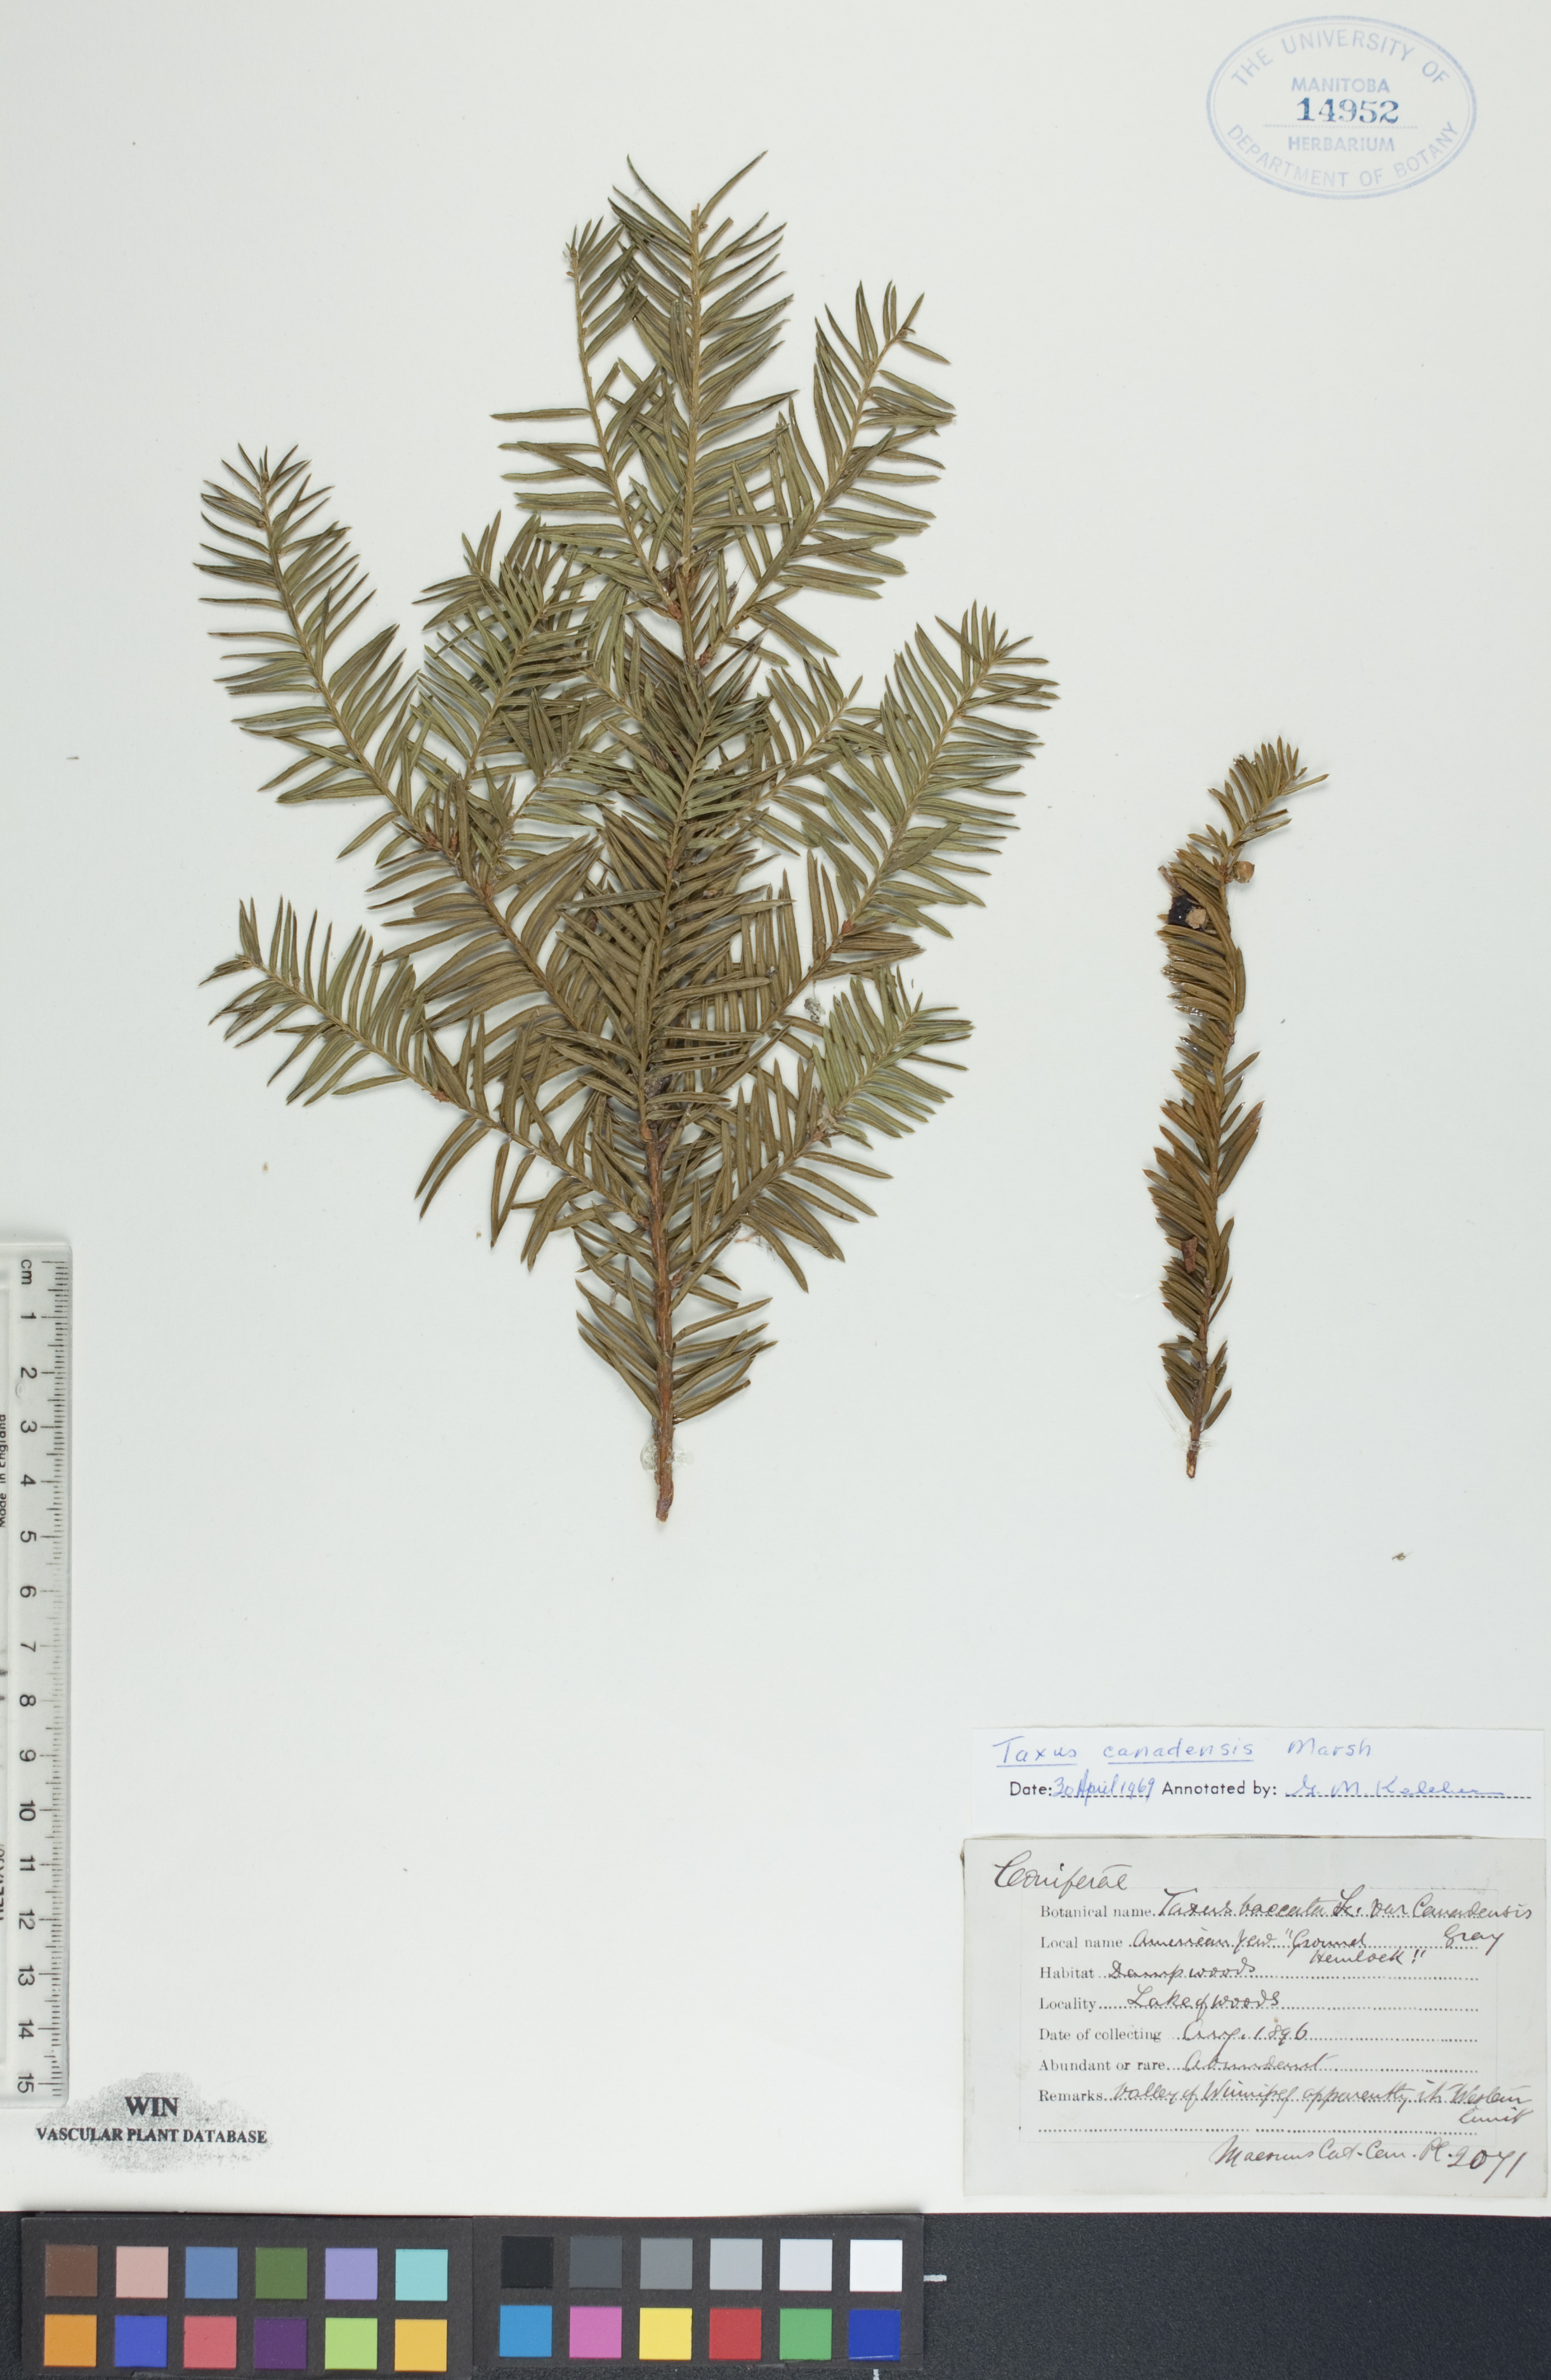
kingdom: Plantae
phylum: Tracheophyta
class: Pinopsida
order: Pinales
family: Taxaceae
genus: Taxus
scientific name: Taxus canadensis
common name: American yew
